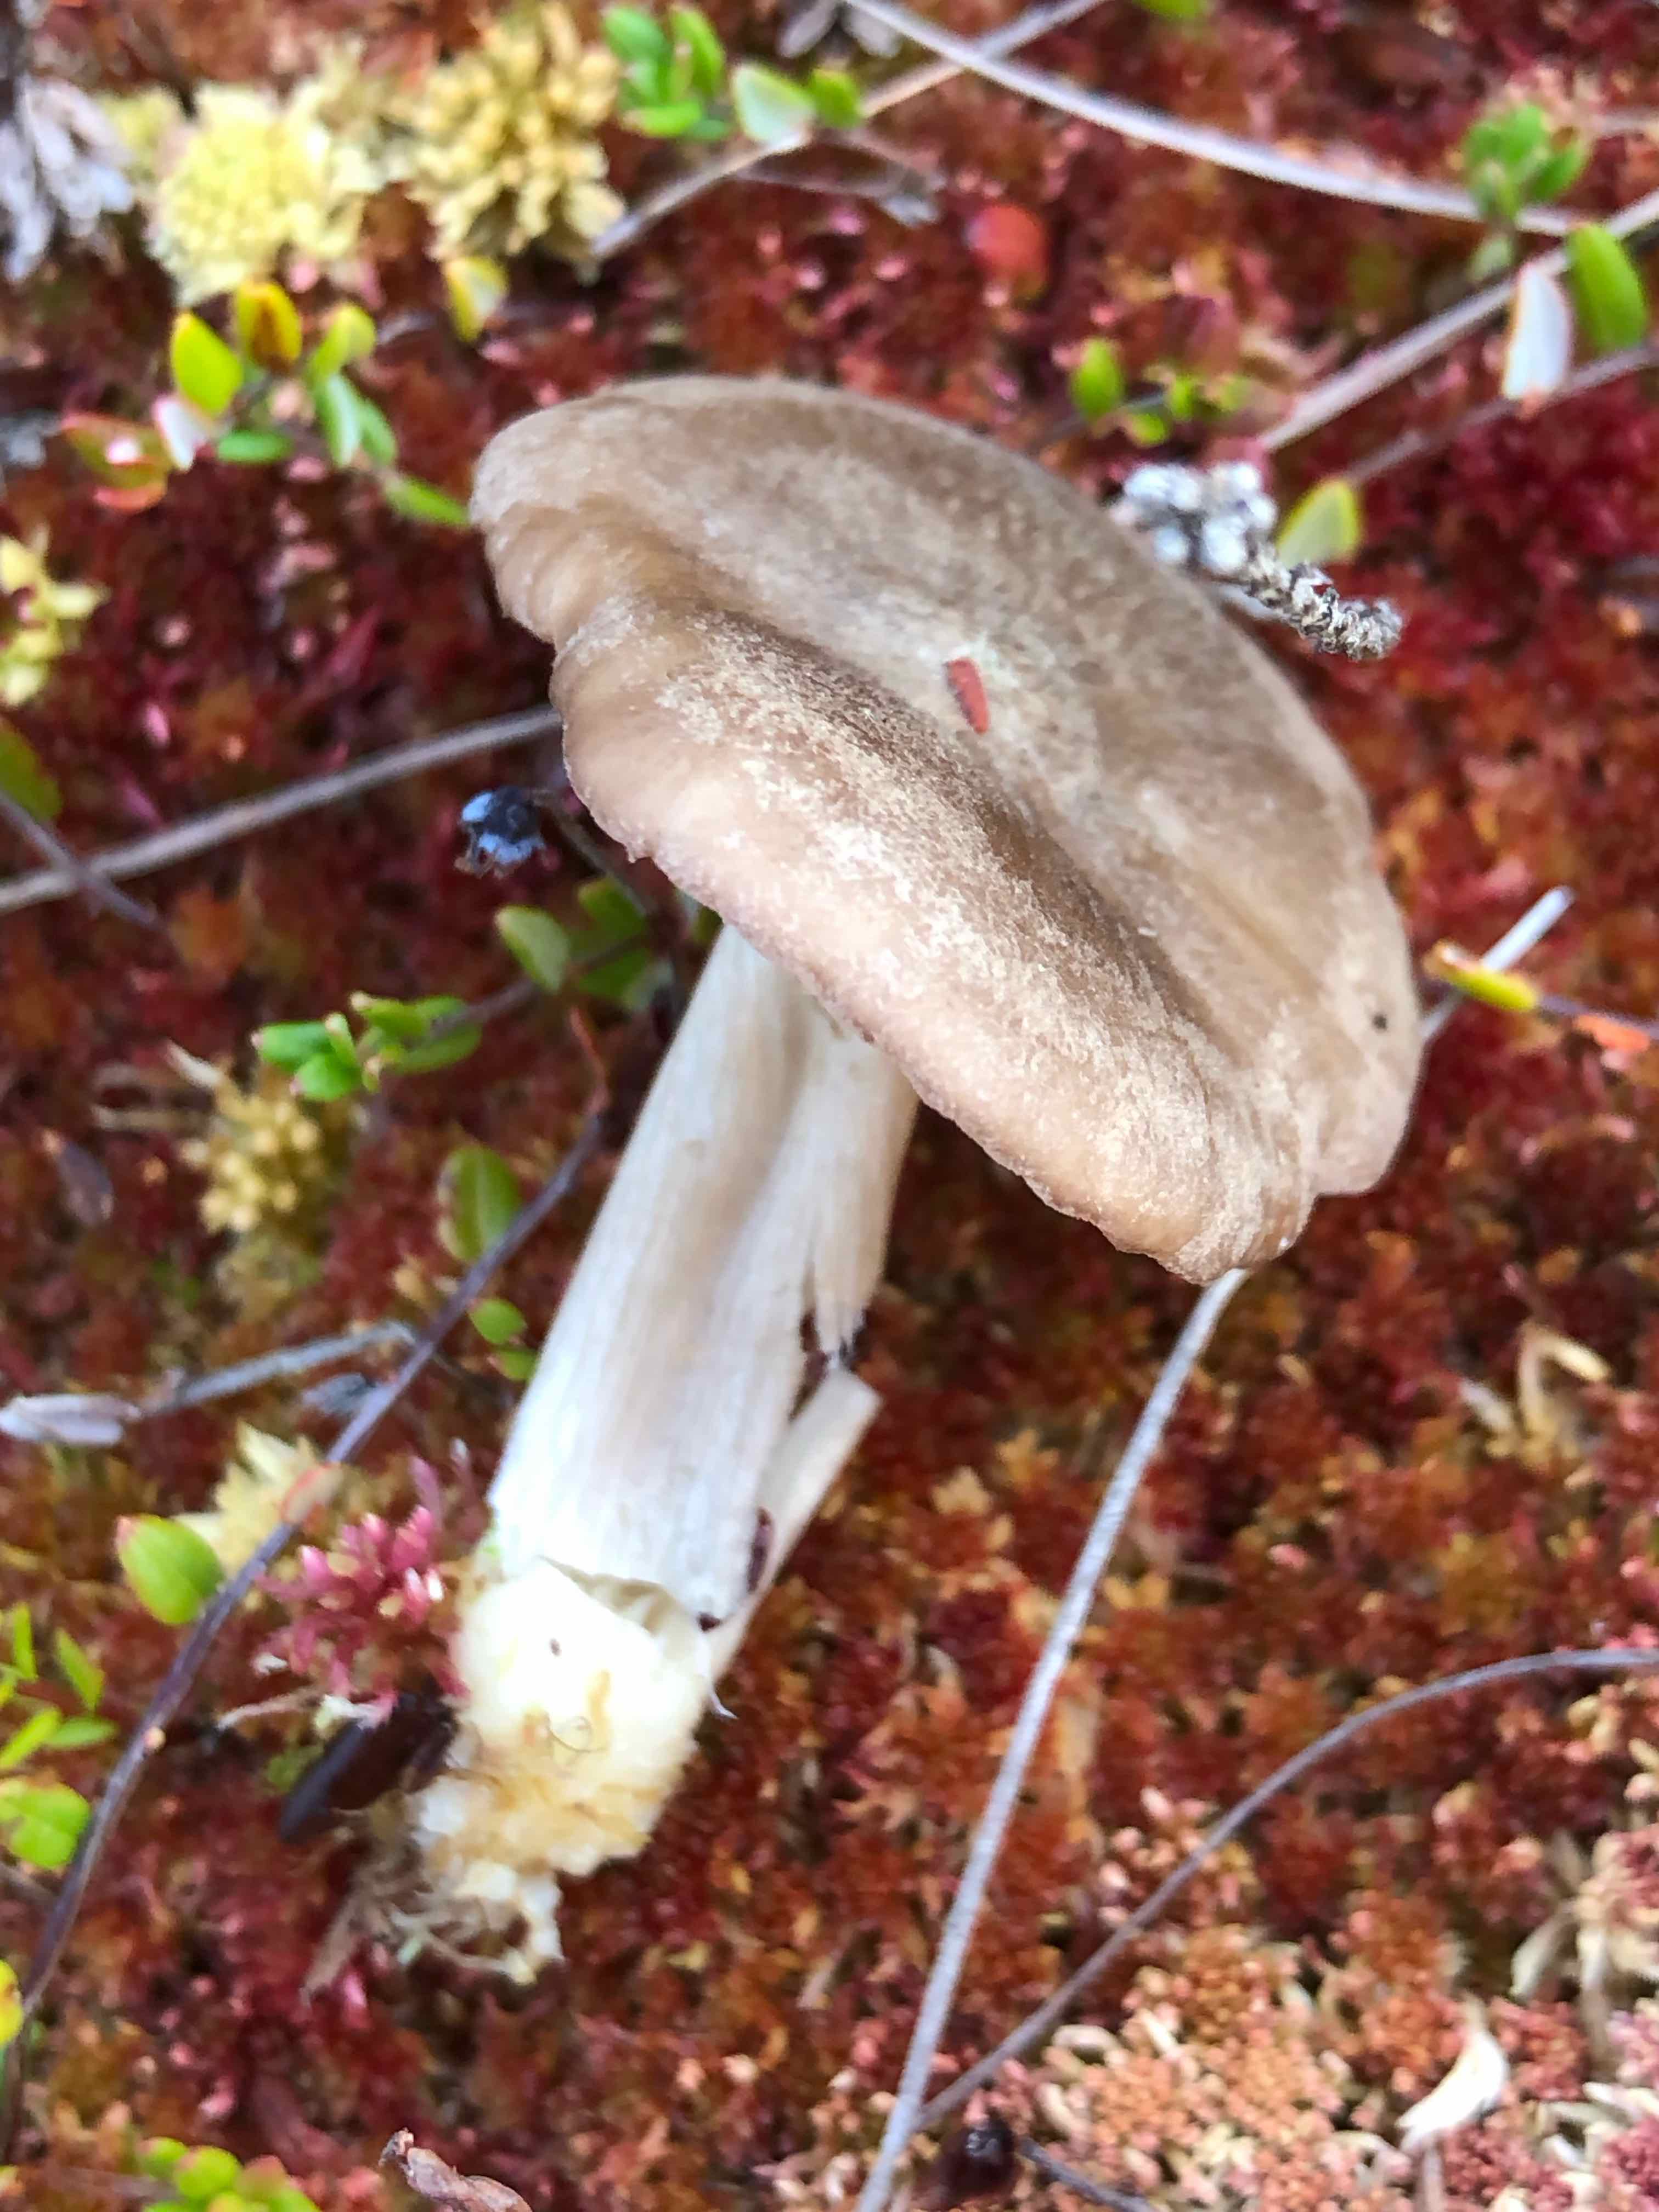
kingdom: Fungi
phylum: Basidiomycota
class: Agaricomycetes
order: Agaricales
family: Entolomataceae
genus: Entoloma
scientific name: Entoloma elodes
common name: mørkægget rødblad
